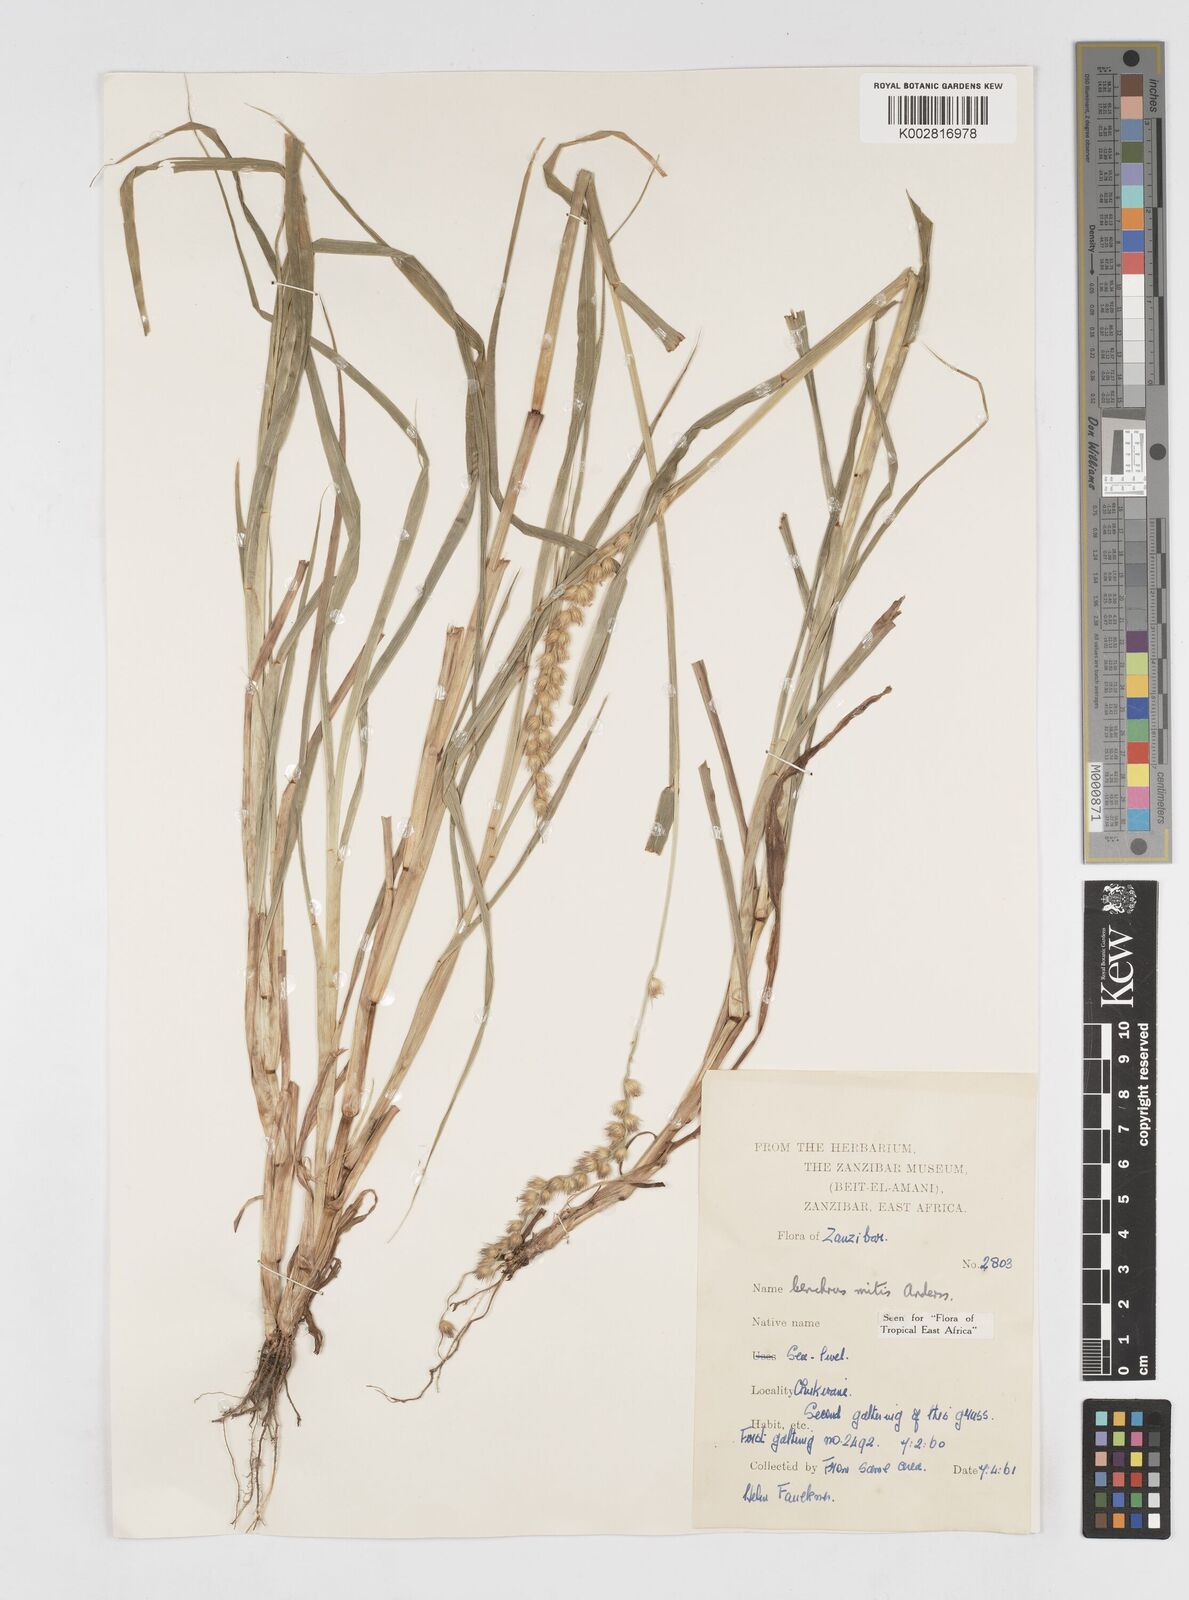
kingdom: Plantae
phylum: Tracheophyta
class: Liliopsida
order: Poales
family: Poaceae
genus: Cenchrus
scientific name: Cenchrus mitis
